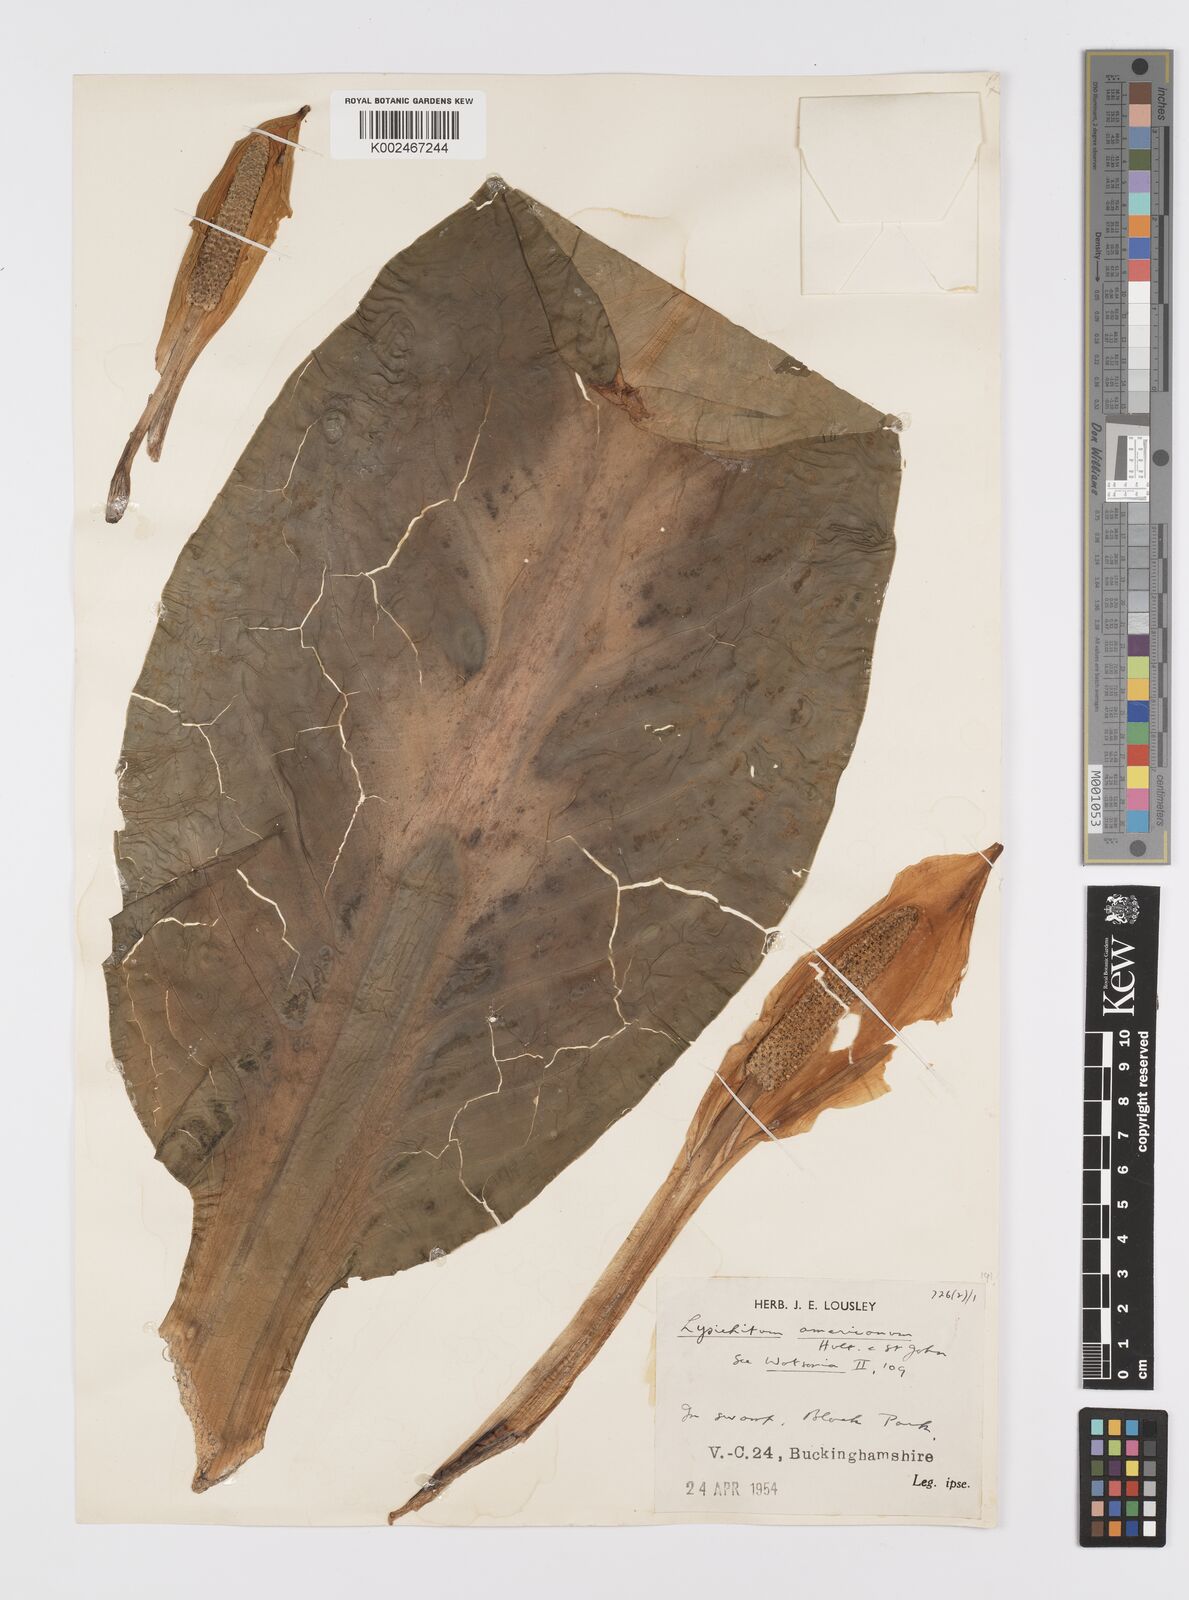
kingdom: Plantae
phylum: Tracheophyta
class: Liliopsida
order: Alismatales
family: Araceae
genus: Lysichiton
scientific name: Lysichiton americanus
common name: American skunk cabbage
